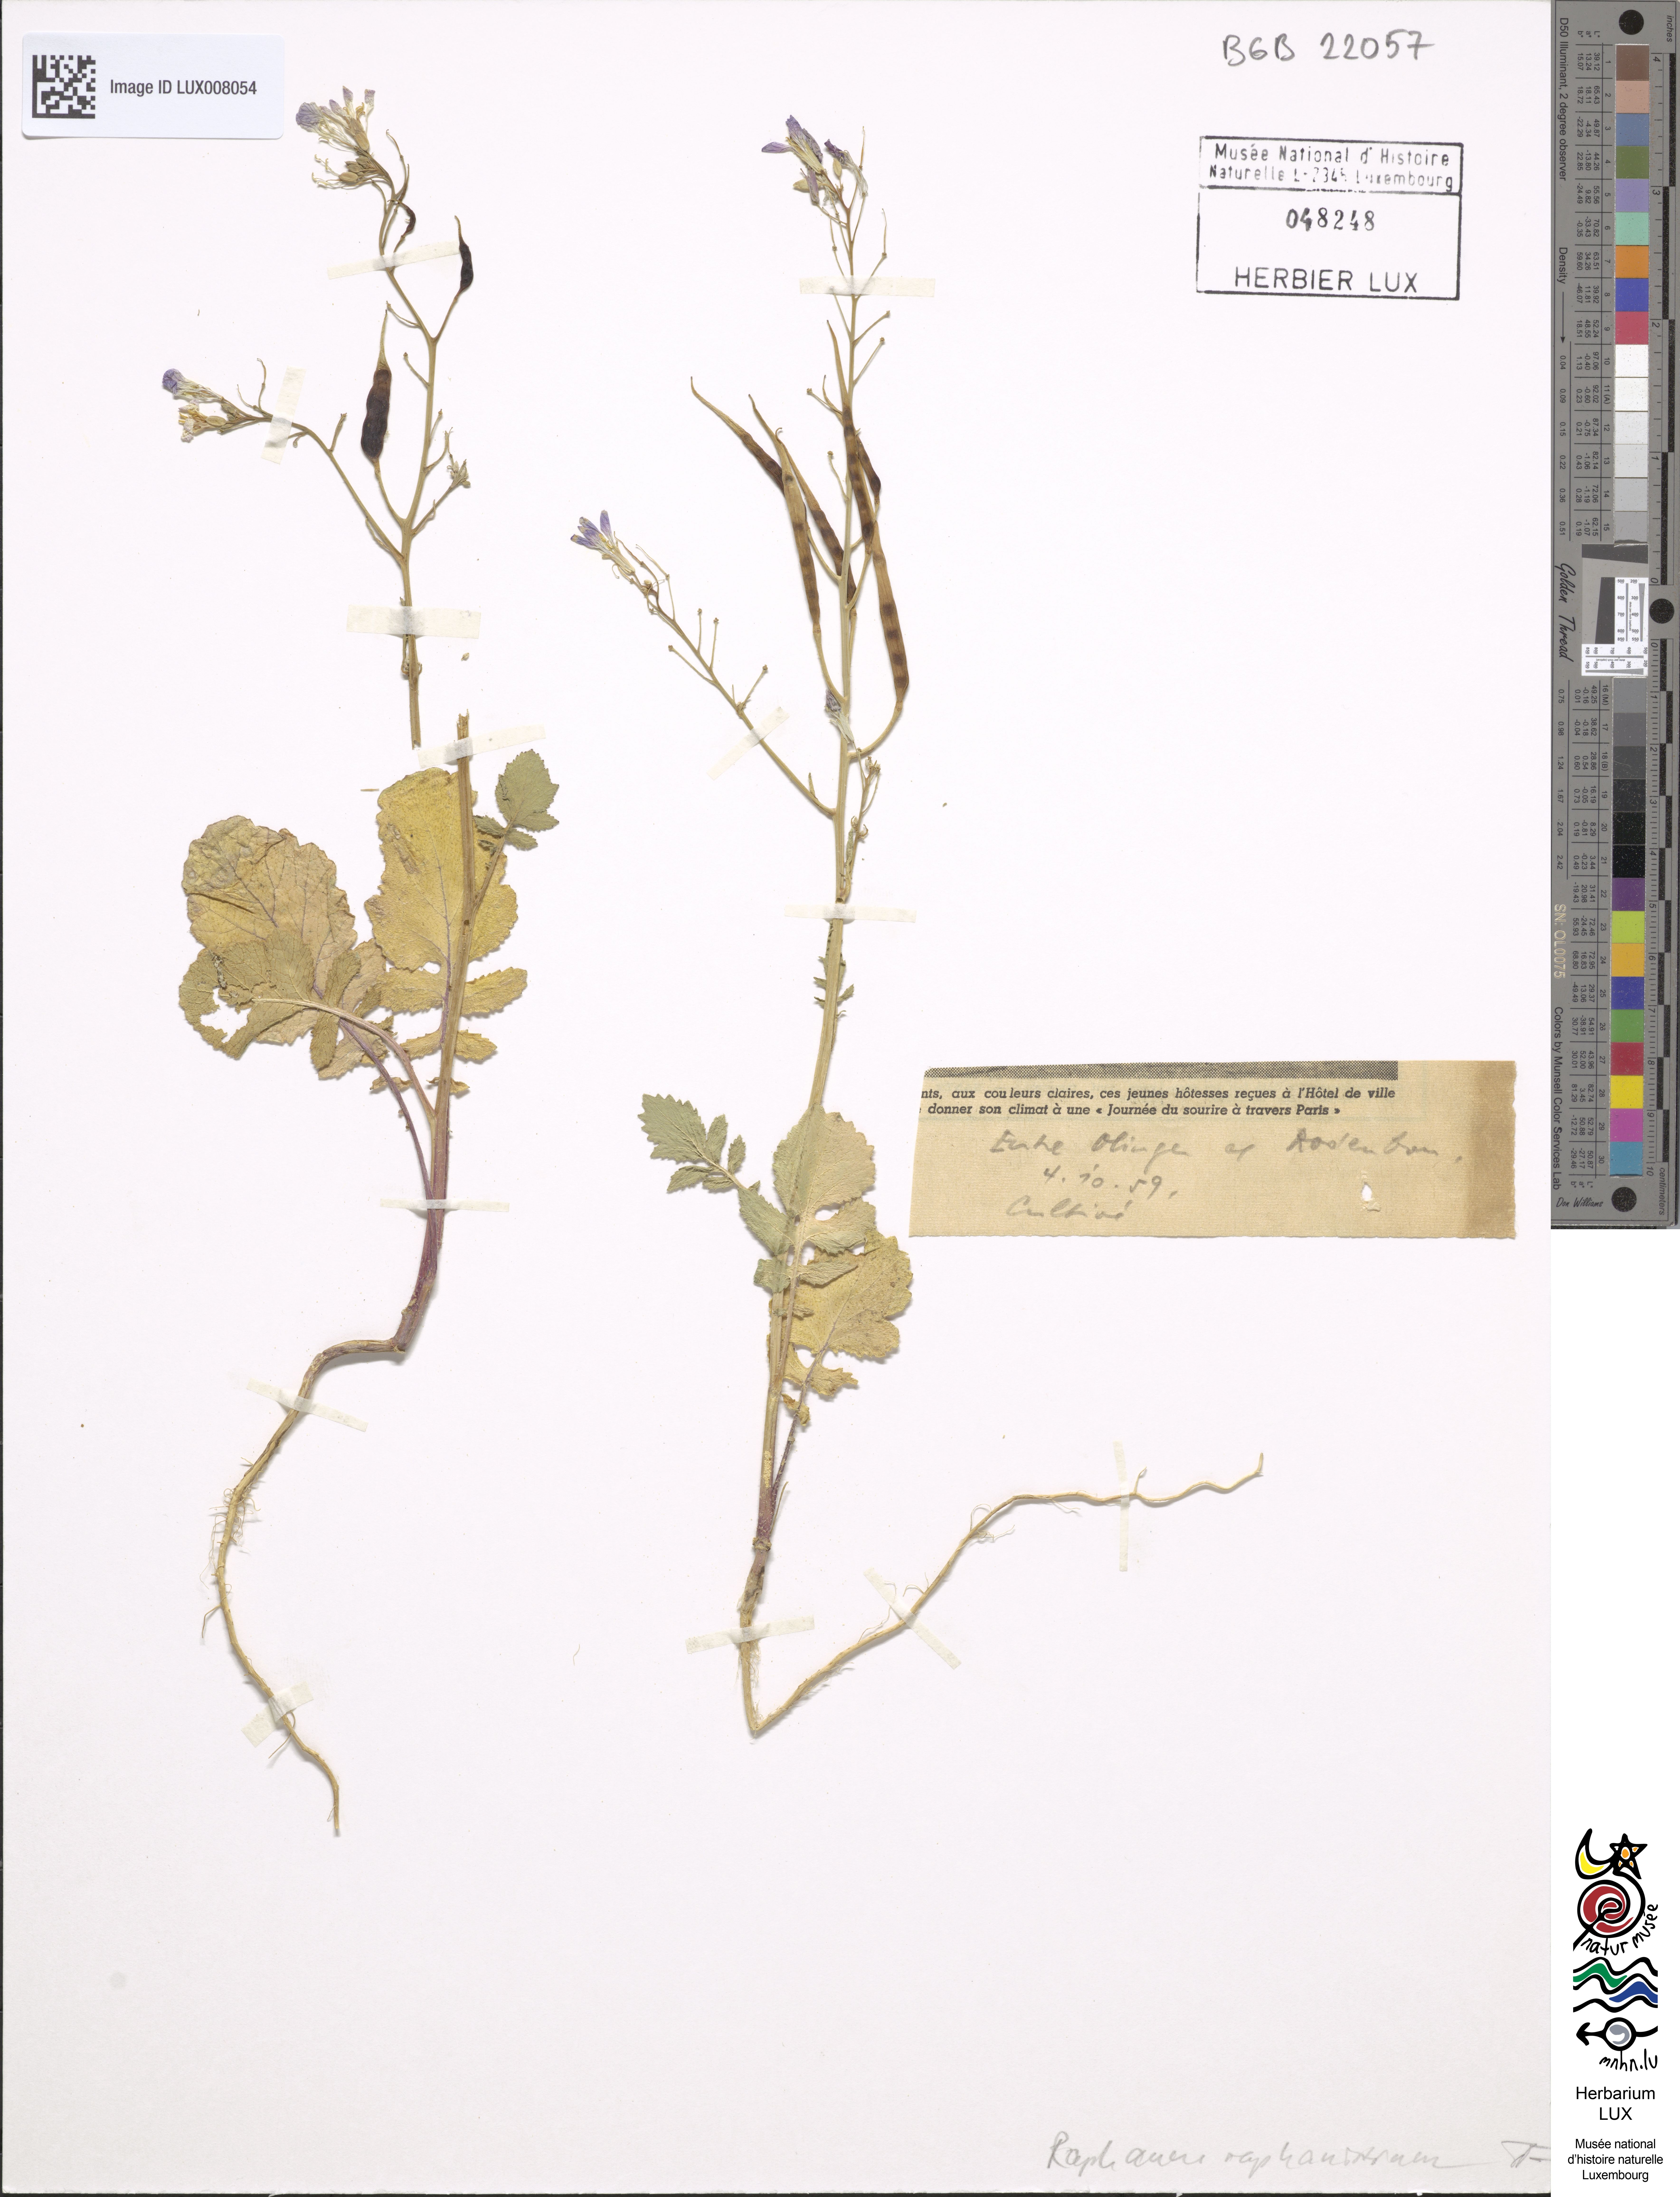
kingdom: Plantae
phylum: Tracheophyta
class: Magnoliopsida
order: Brassicales
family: Brassicaceae
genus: Raphanus
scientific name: Raphanus raphanistrum
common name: Wild radish
